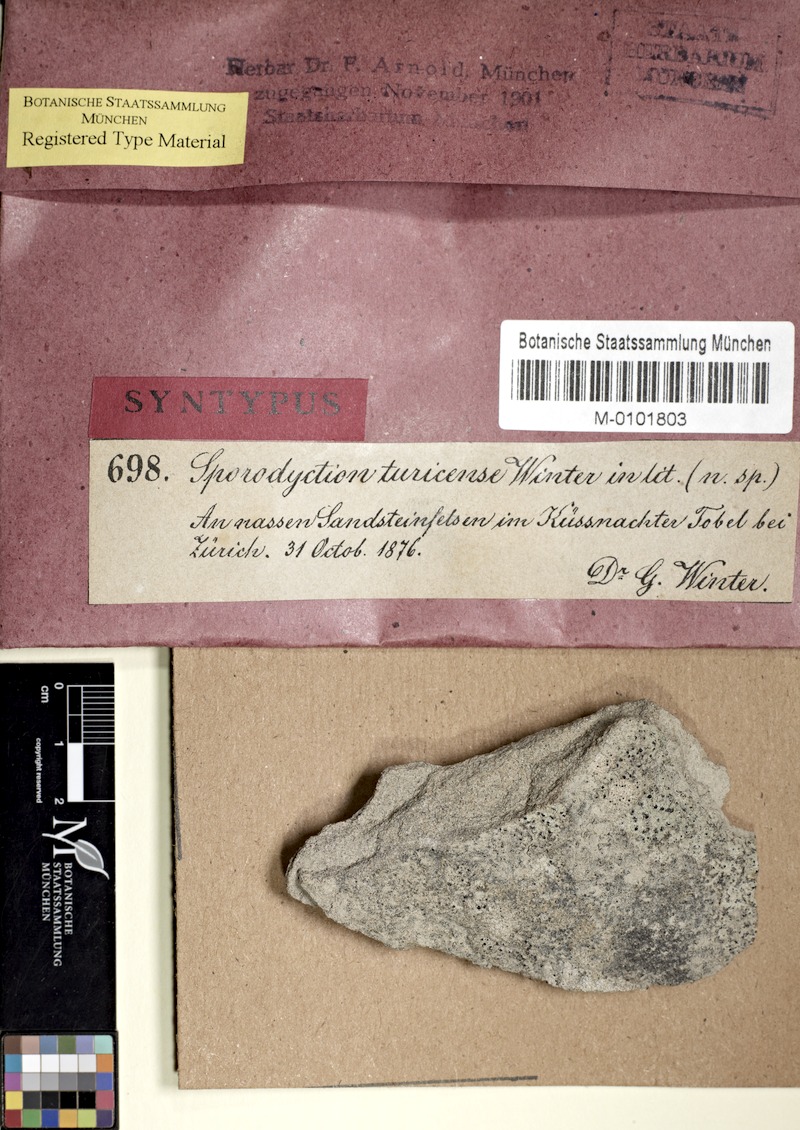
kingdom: Fungi
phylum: Ascomycota
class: Eurotiomycetes
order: Verrucariales
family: Verrucariaceae
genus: Sporodictyon
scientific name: Sporodictyon turicense
